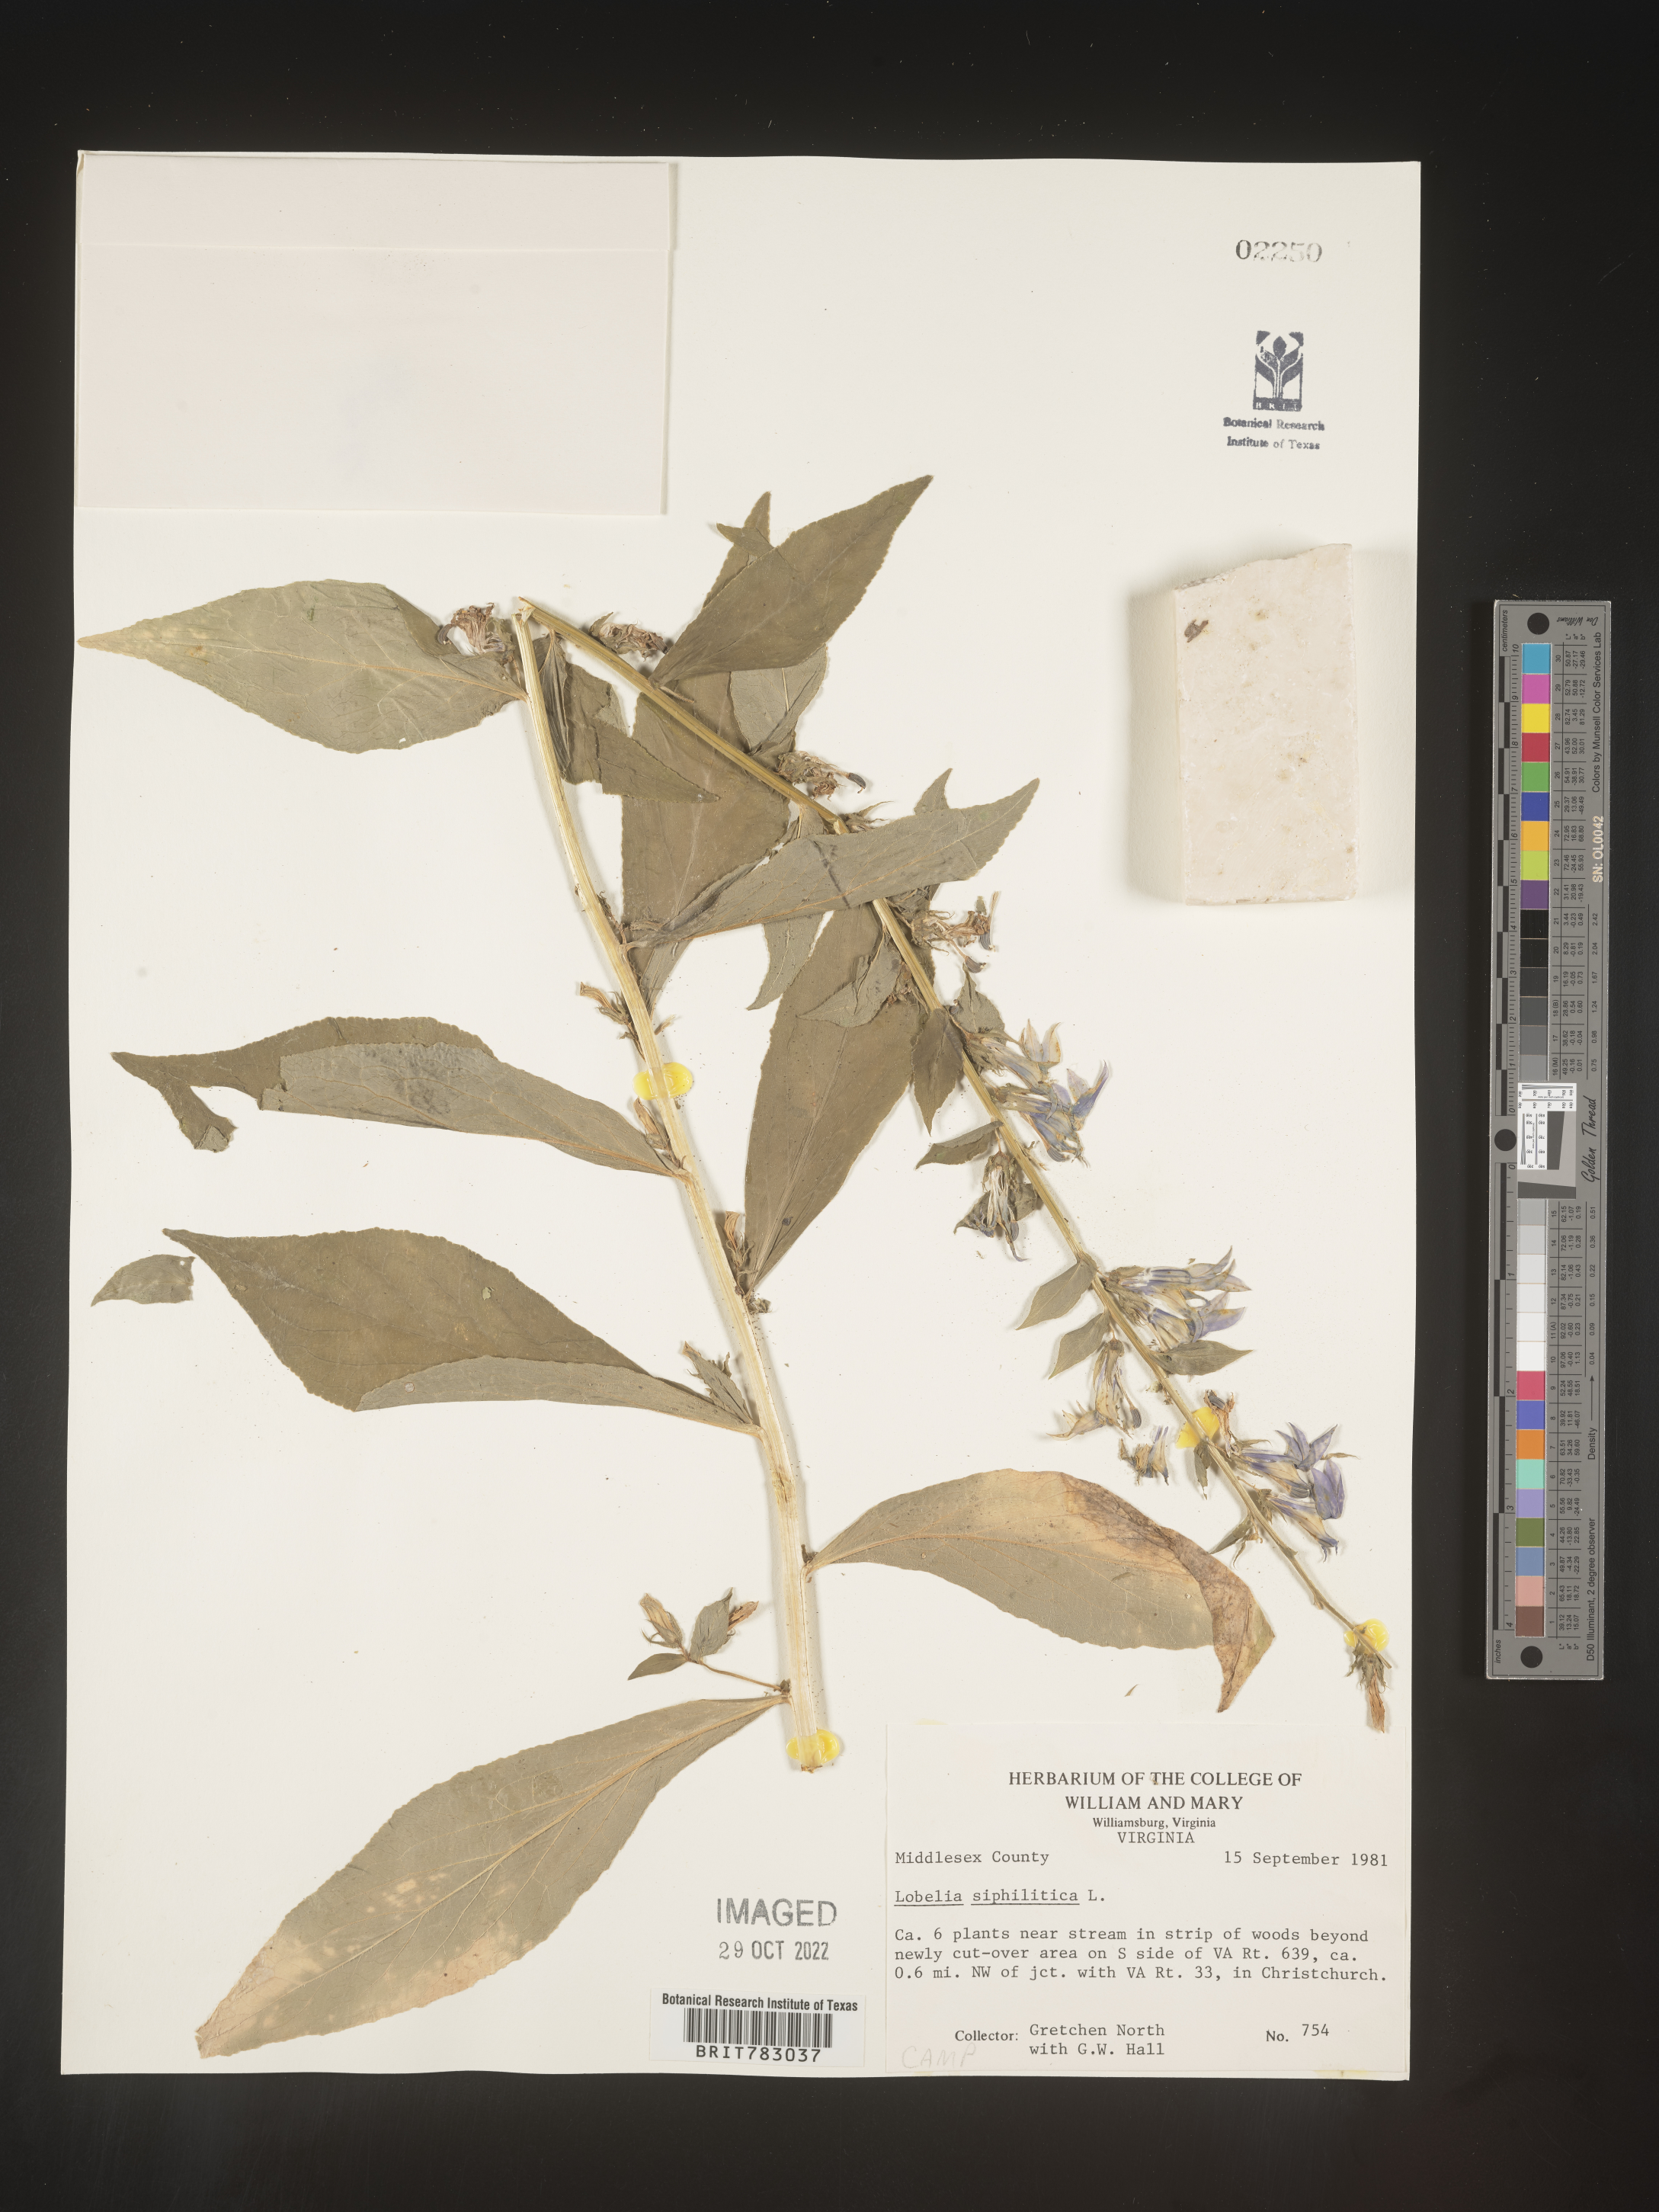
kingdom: Plantae
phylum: Tracheophyta
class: Magnoliopsida
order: Asterales
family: Campanulaceae
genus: Lobelia
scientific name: Lobelia siphilitica
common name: Great lobelia
